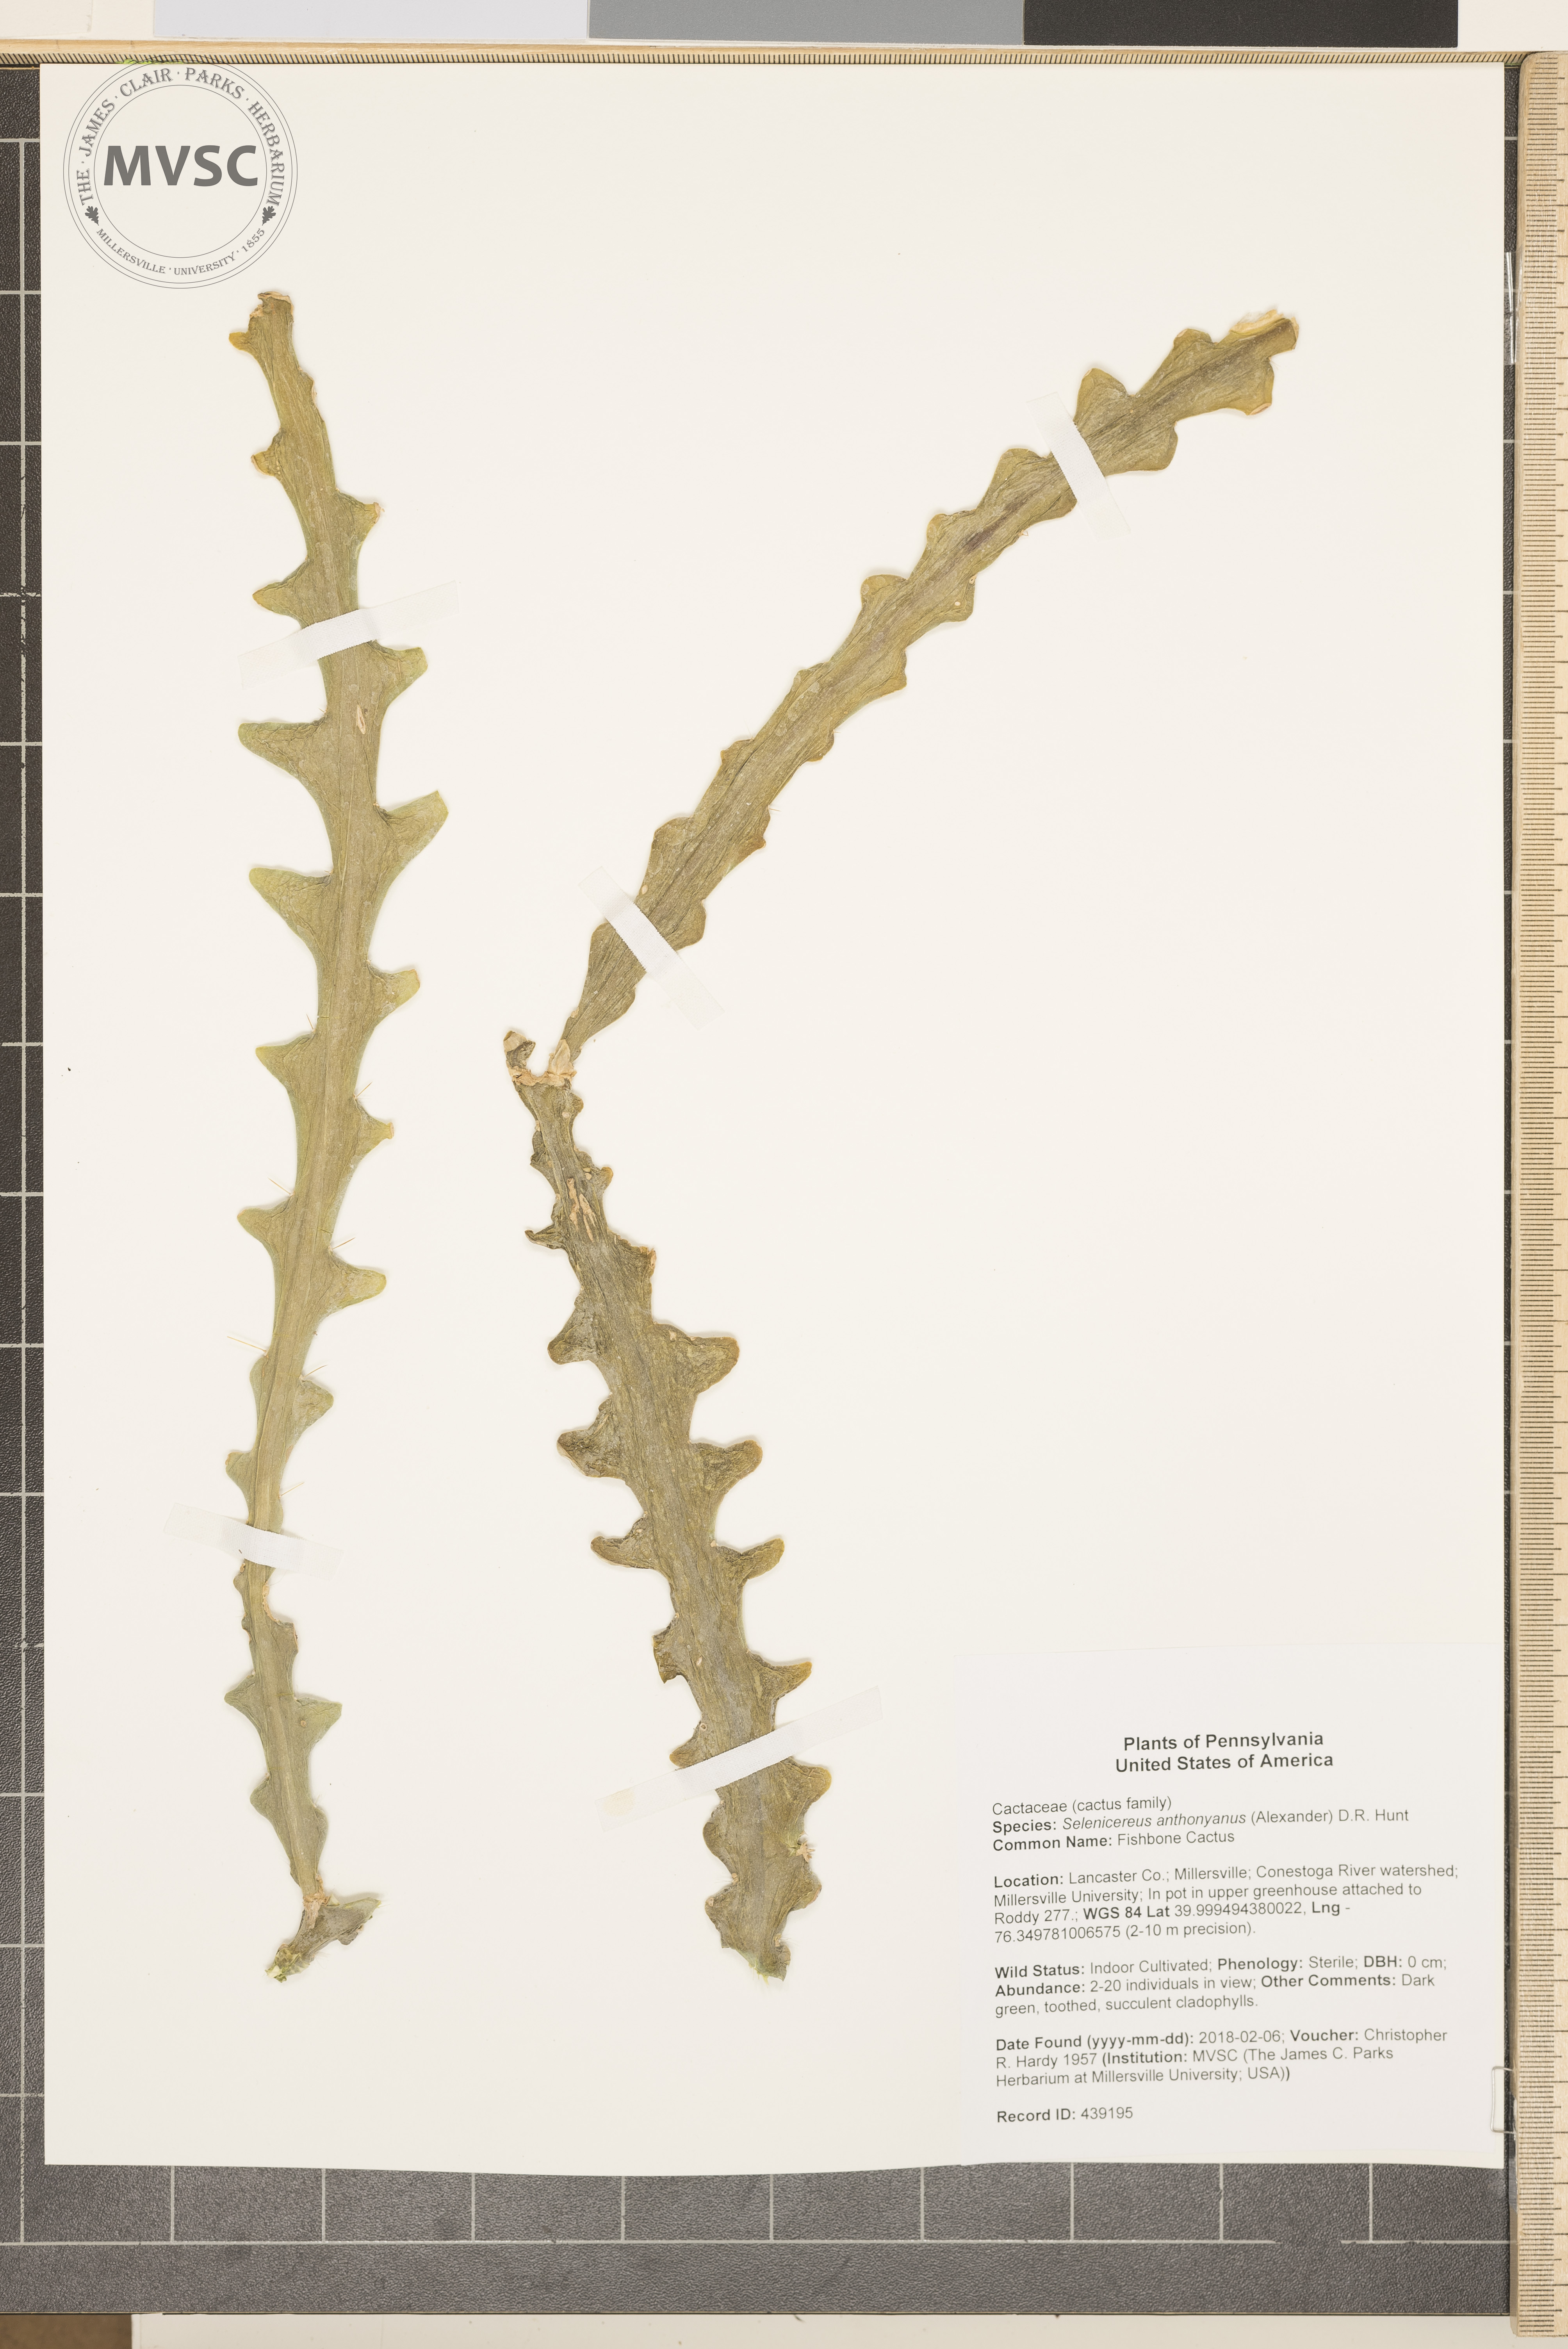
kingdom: Plantae
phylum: Tracheophyta
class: Magnoliopsida
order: Caryophyllales
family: Cactaceae
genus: Selenicereus
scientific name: Selenicereus anthonyanus
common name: Fishbone Cactus
